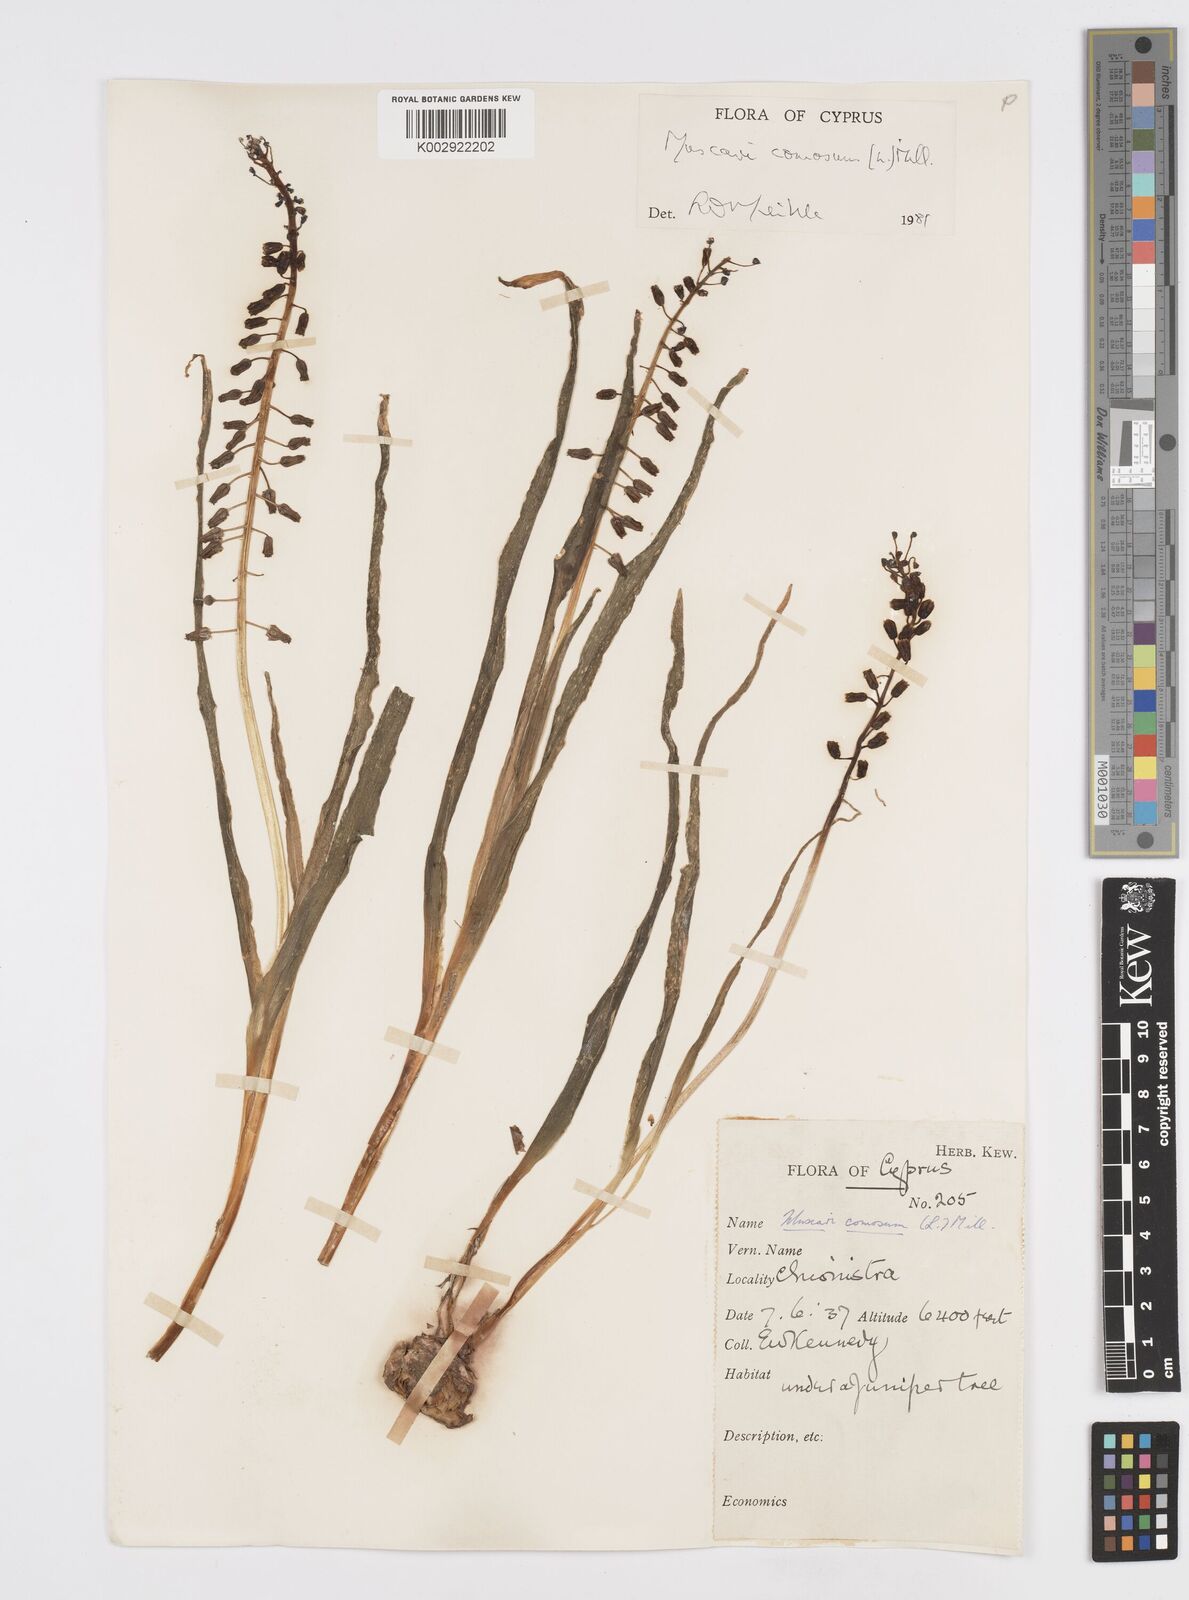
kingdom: Plantae
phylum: Tracheophyta
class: Liliopsida
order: Asparagales
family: Asparagaceae
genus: Muscari
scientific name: Muscari comosum
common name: Tassel hyacinth
